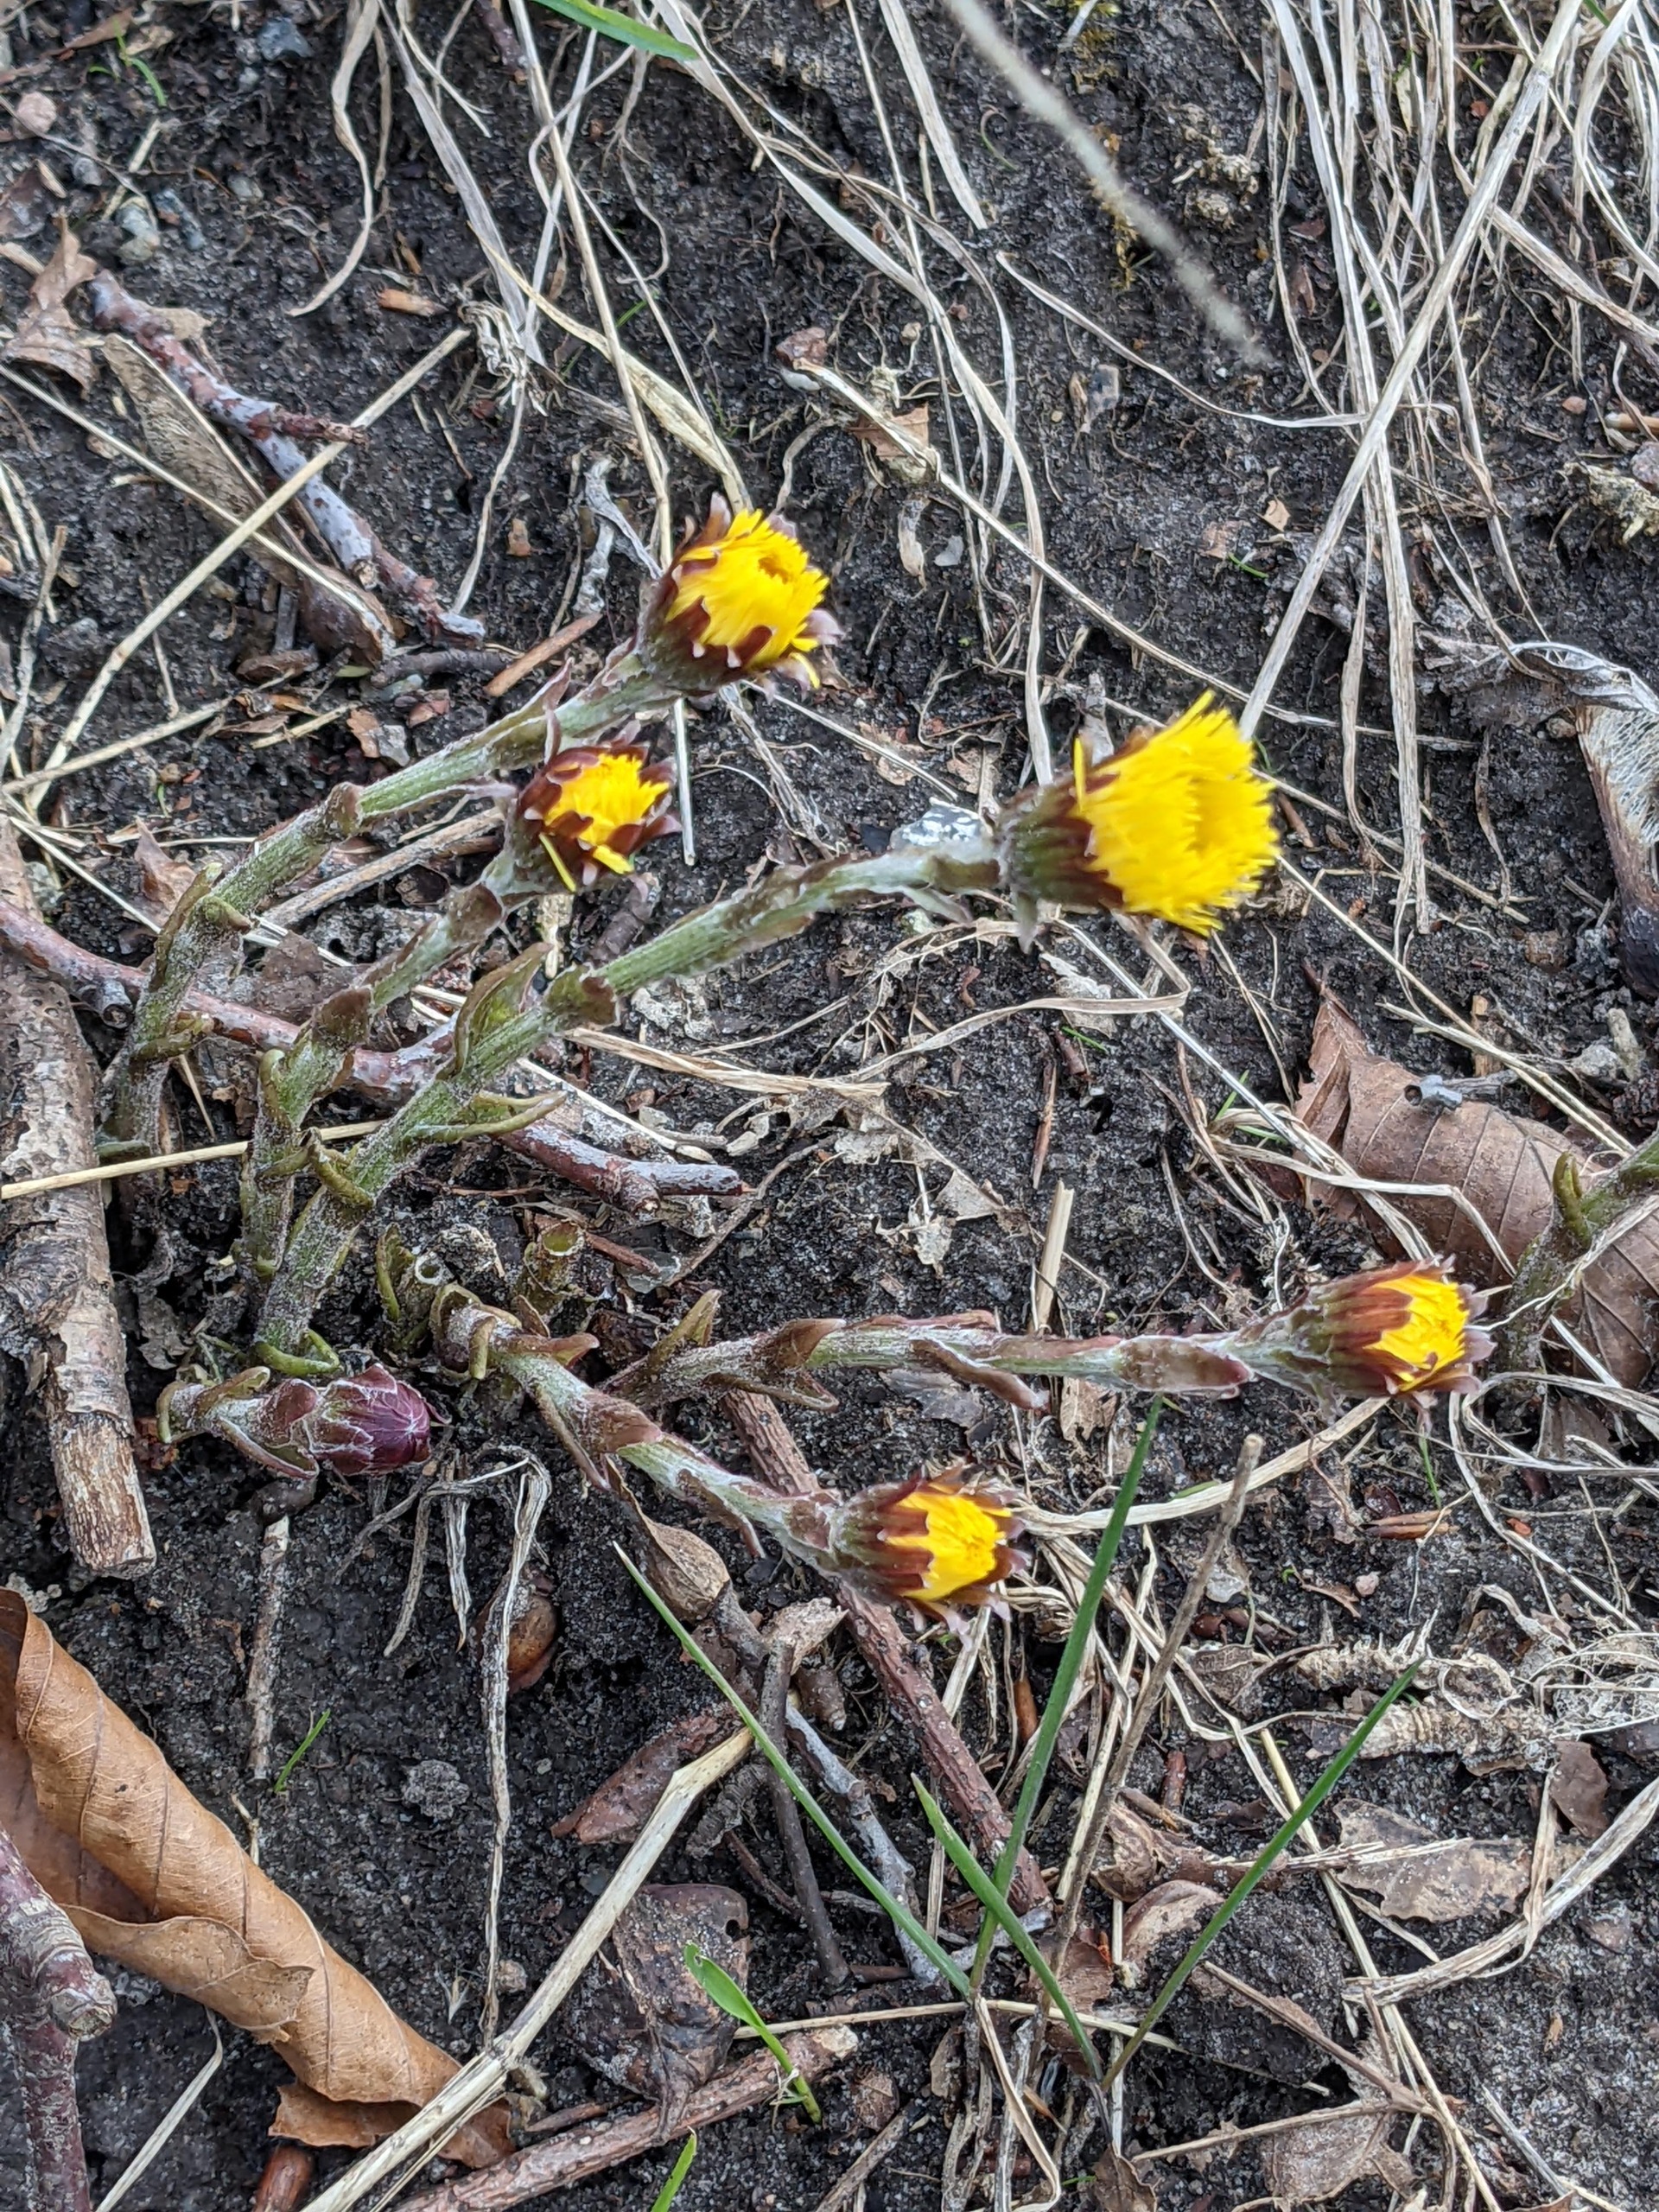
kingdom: Plantae
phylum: Tracheophyta
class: Magnoliopsida
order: Asterales
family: Asteraceae
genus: Tussilago
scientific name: Tussilago farfara
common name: Følfod
